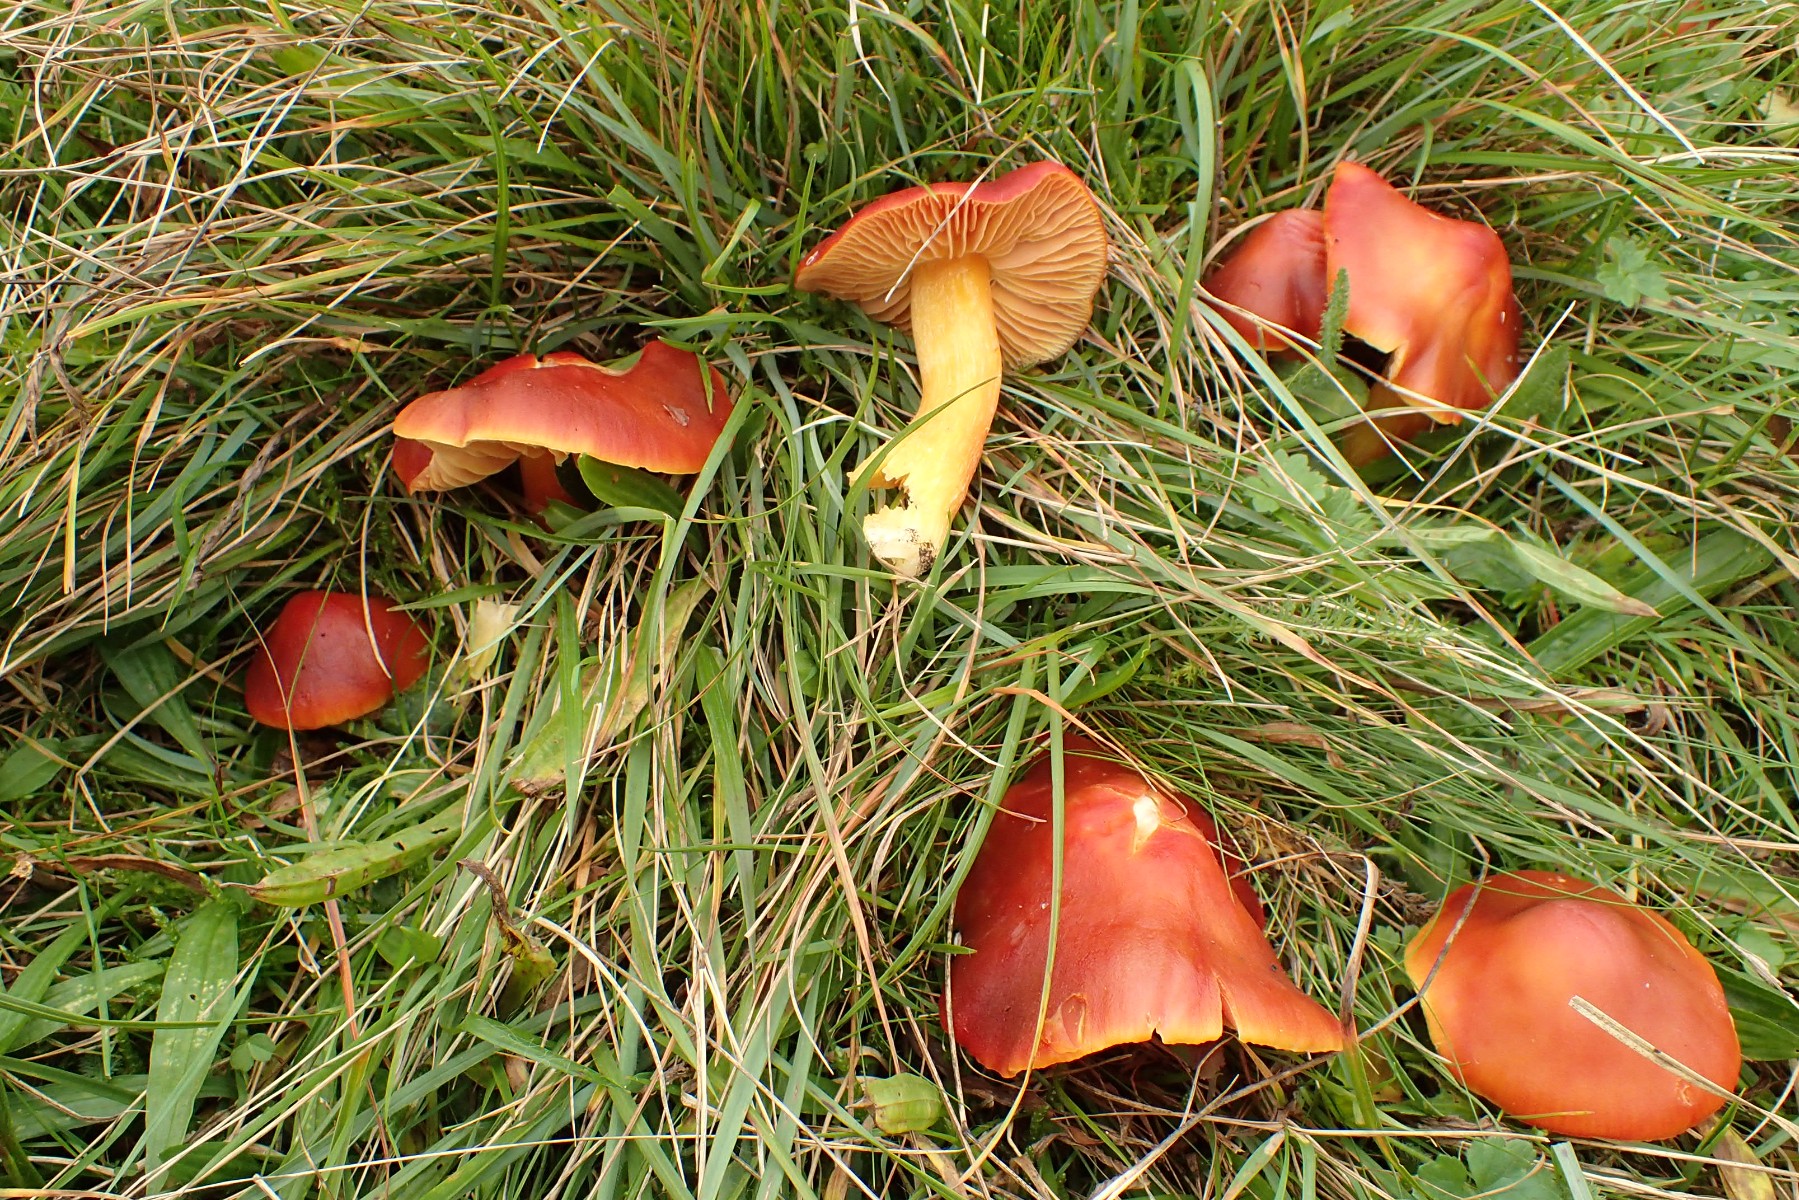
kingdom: Fungi
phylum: Basidiomycota
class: Agaricomycetes
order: Agaricales
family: Hygrophoraceae
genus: Hygrocybe
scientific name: Hygrocybe punicea
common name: skarlagen-vokshat
